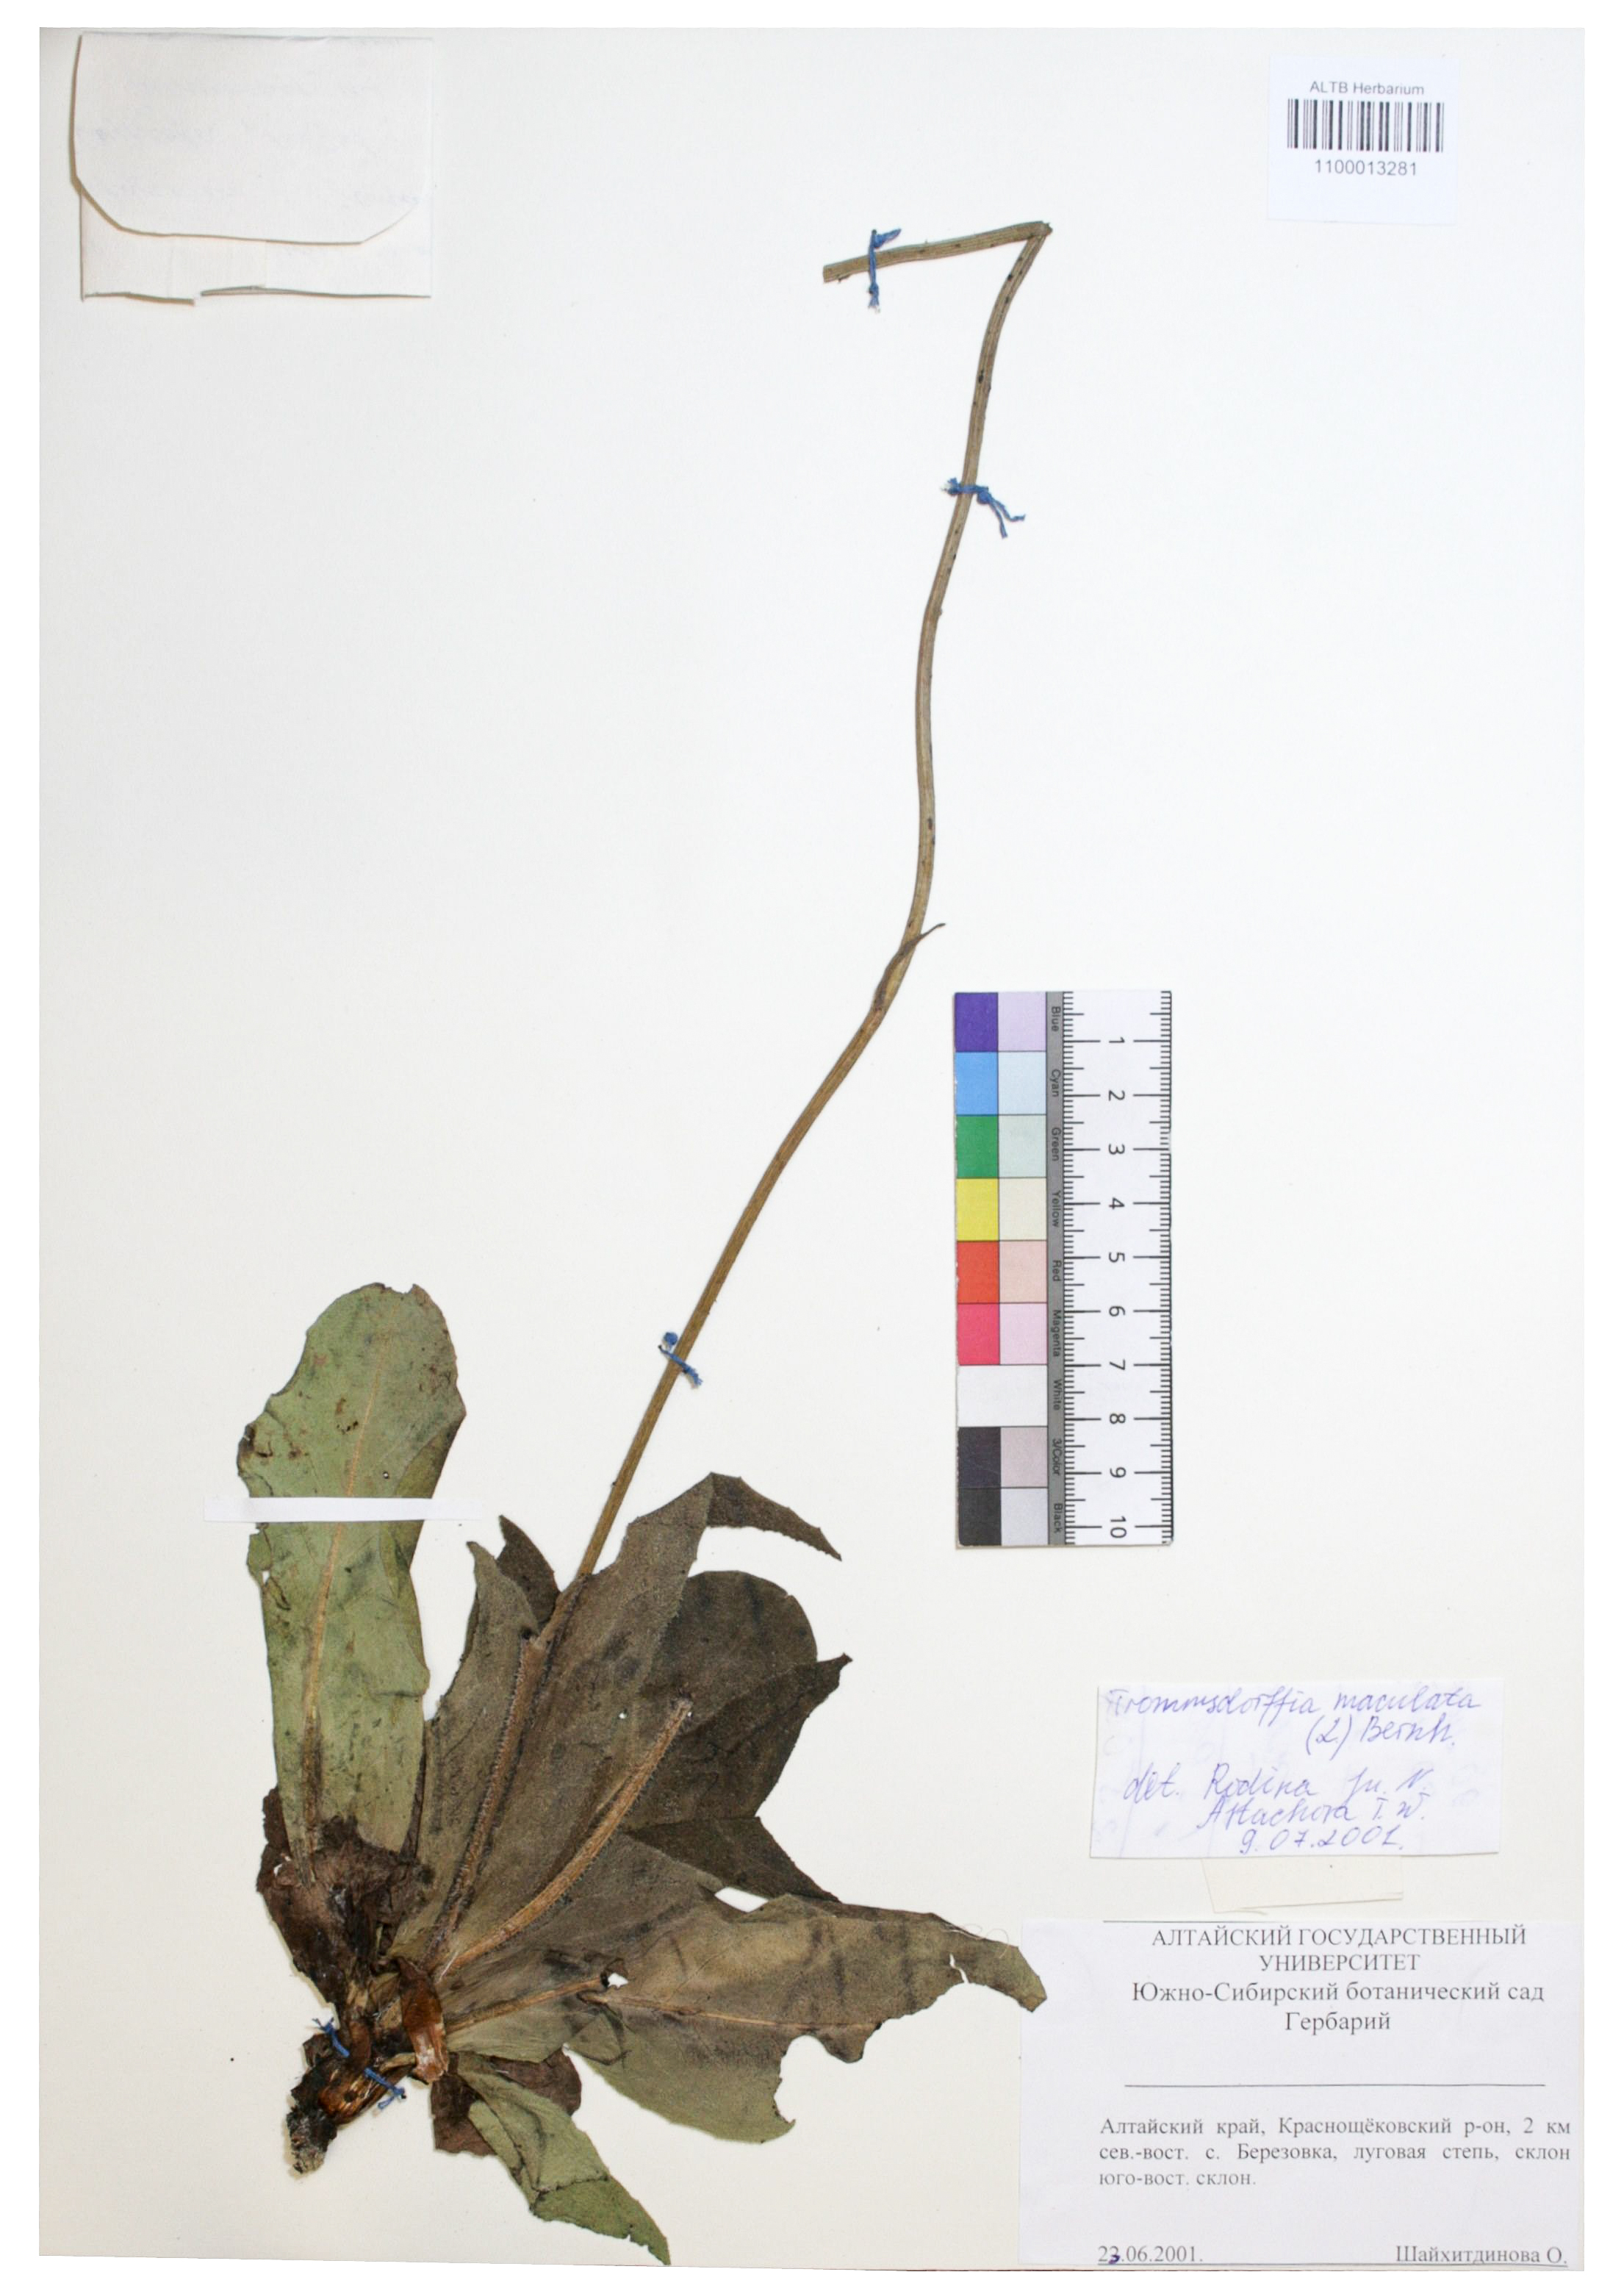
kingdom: Plantae
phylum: Tracheophyta
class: Magnoliopsida
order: Asterales
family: Asteraceae
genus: Trommsdorffia
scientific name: Trommsdorffia maculata
